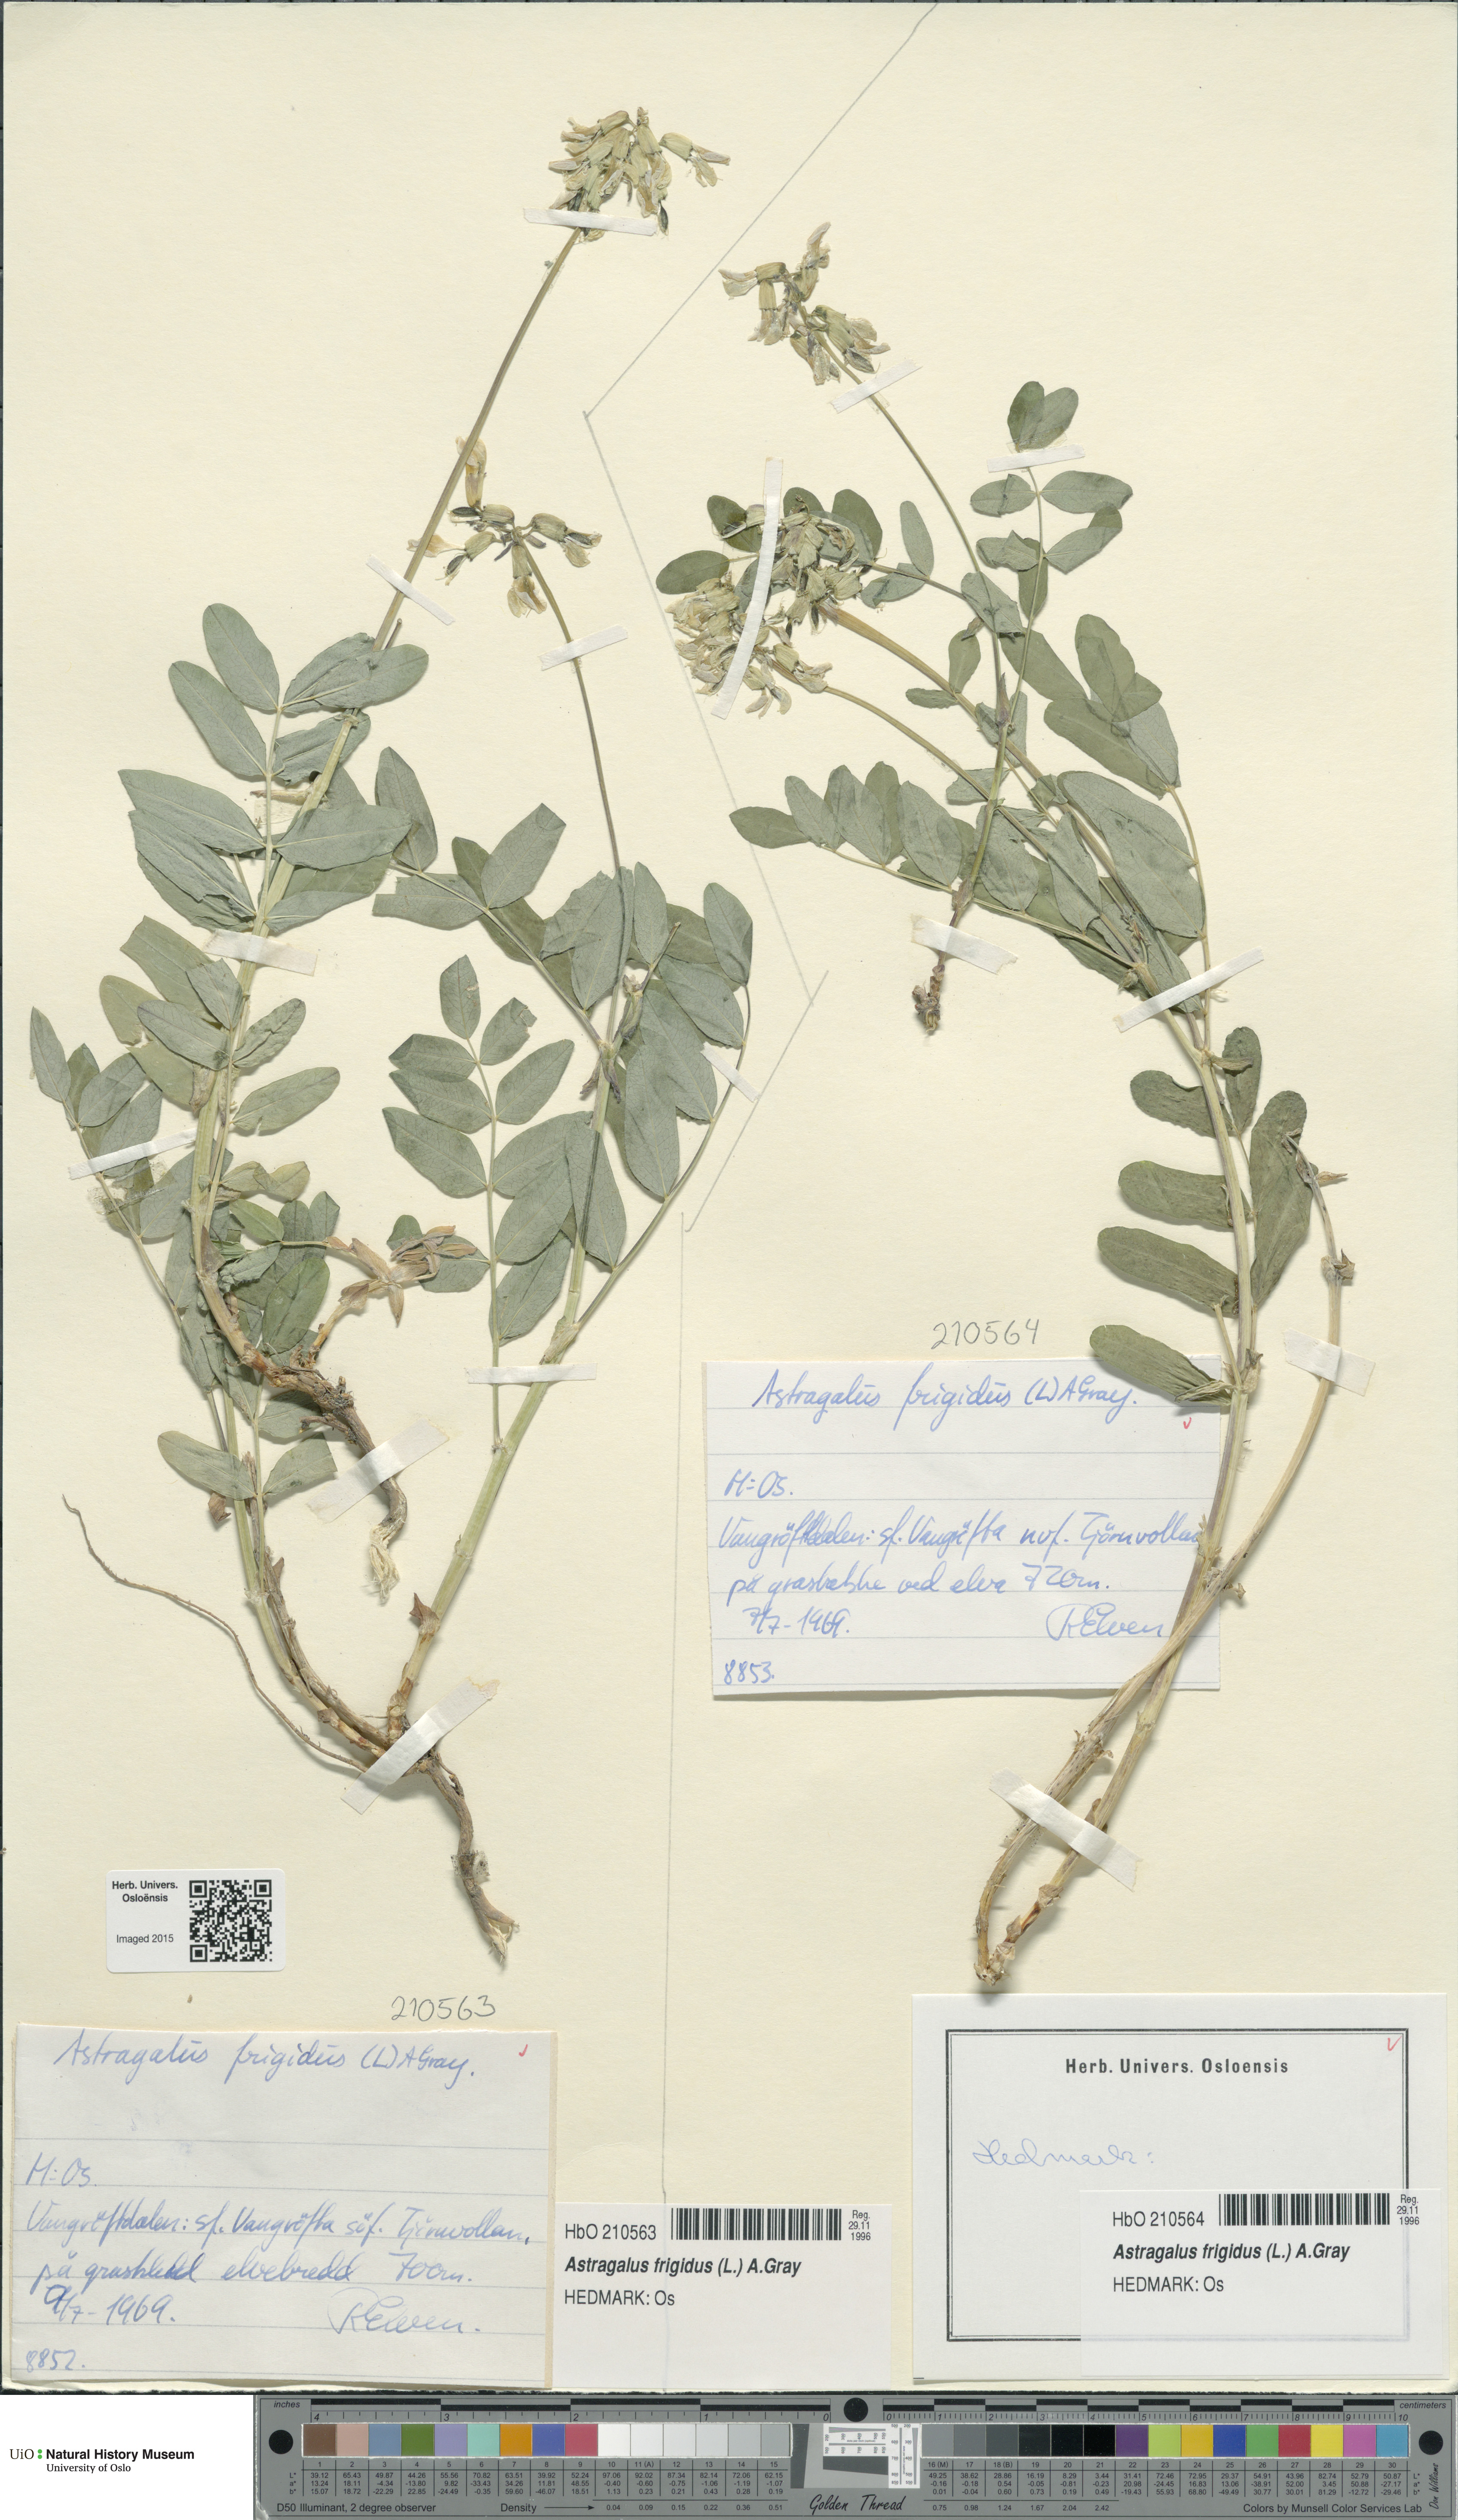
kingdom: Plantae
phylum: Tracheophyta
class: Magnoliopsida
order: Fabales
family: Fabaceae
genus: Astragalus
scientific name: Astragalus frigidus
